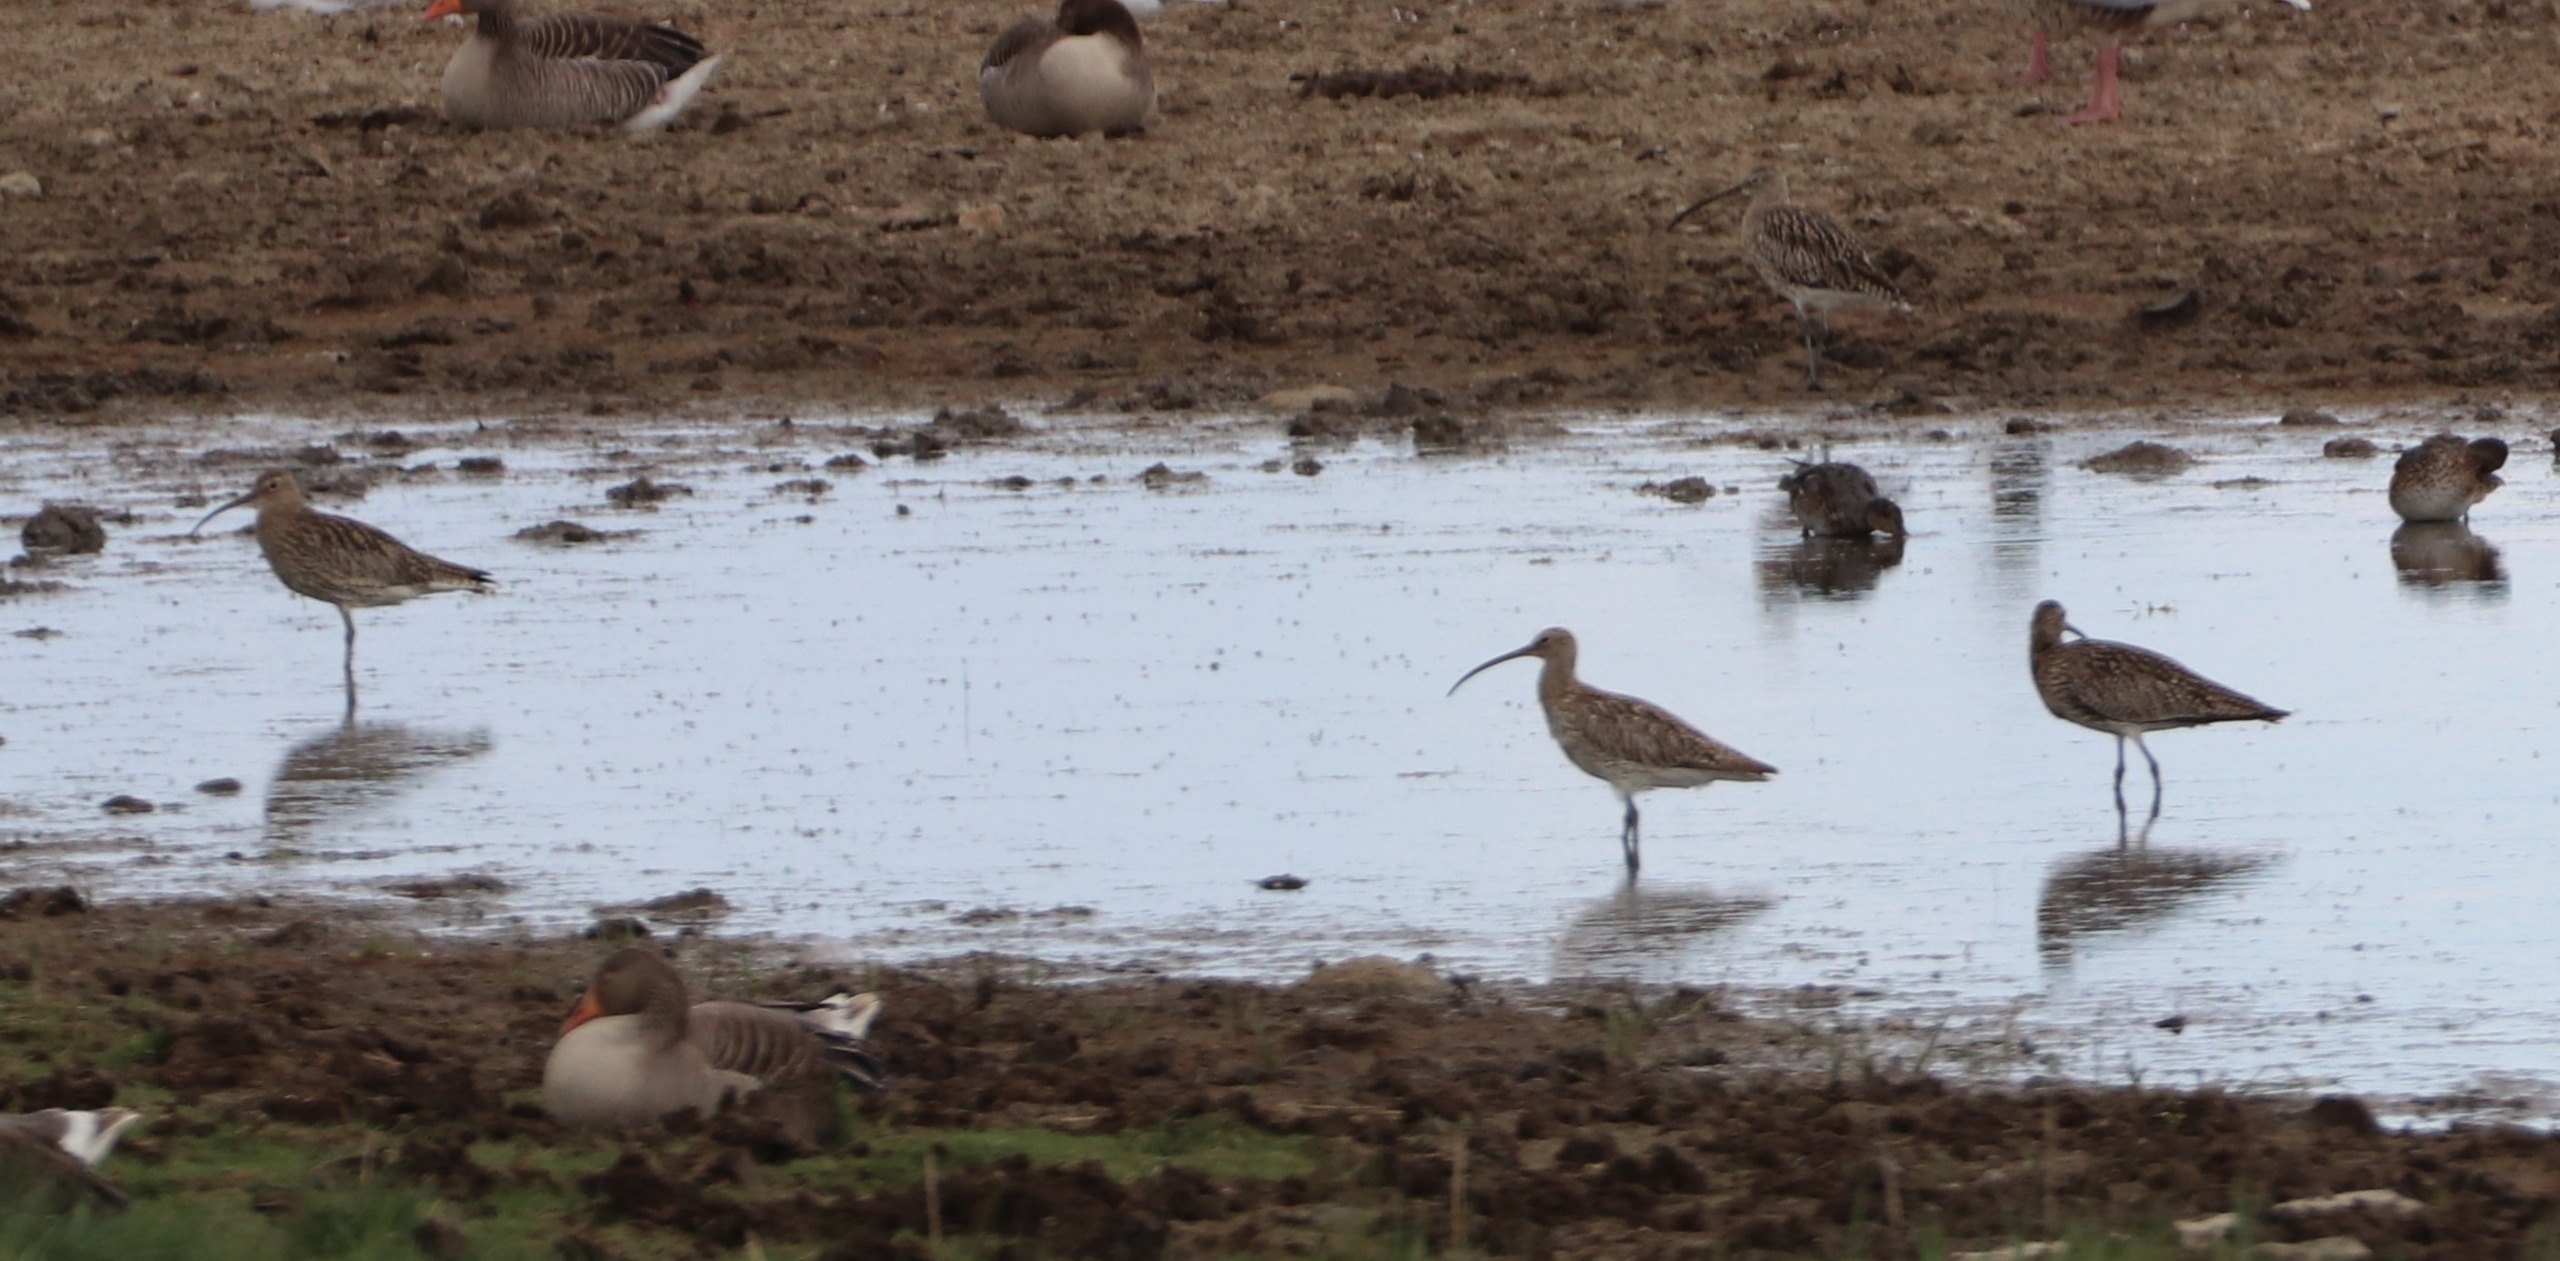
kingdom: Animalia
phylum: Chordata
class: Aves
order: Charadriiformes
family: Scolopacidae
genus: Numenius
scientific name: Numenius arquata
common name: Storspove
